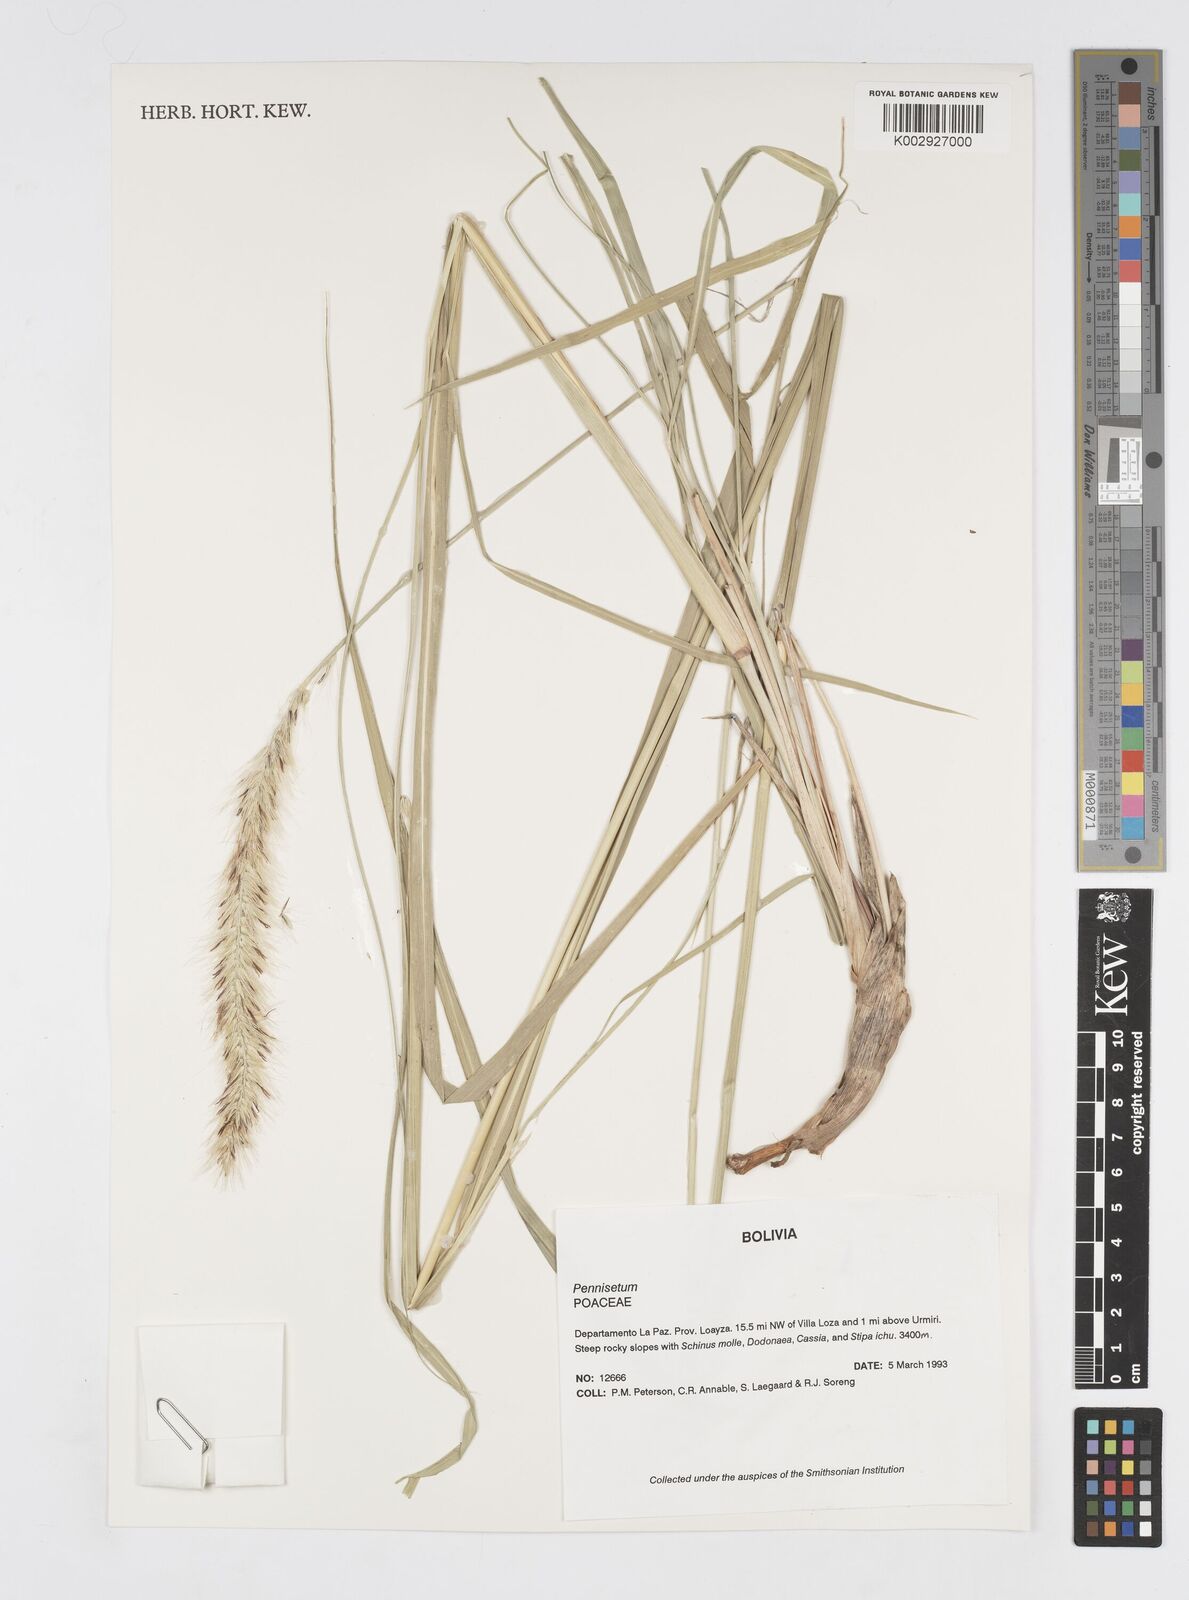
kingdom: Plantae
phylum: Tracheophyta
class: Liliopsida
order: Poales
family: Poaceae
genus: Cenchrus
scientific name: Cenchrus chilensis
